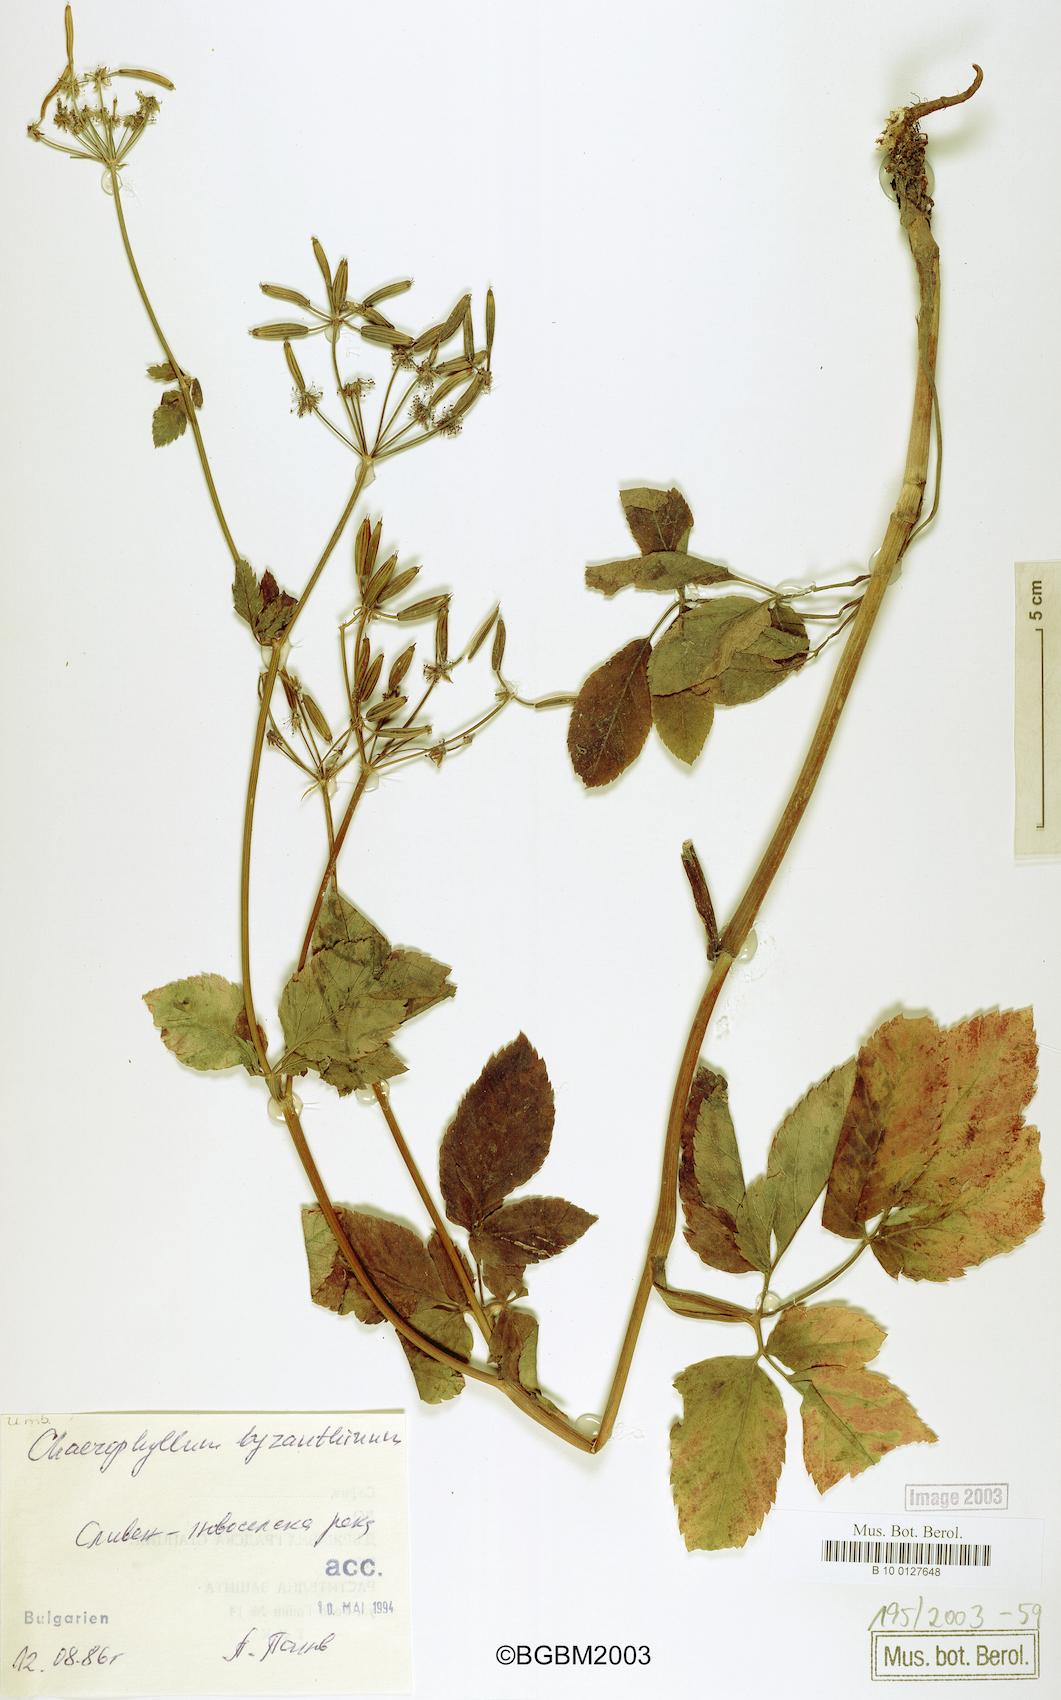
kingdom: Plantae
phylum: Tracheophyta
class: Magnoliopsida
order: Apiales
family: Apiaceae
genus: Chaerophyllum
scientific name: Chaerophyllum byzantinum
